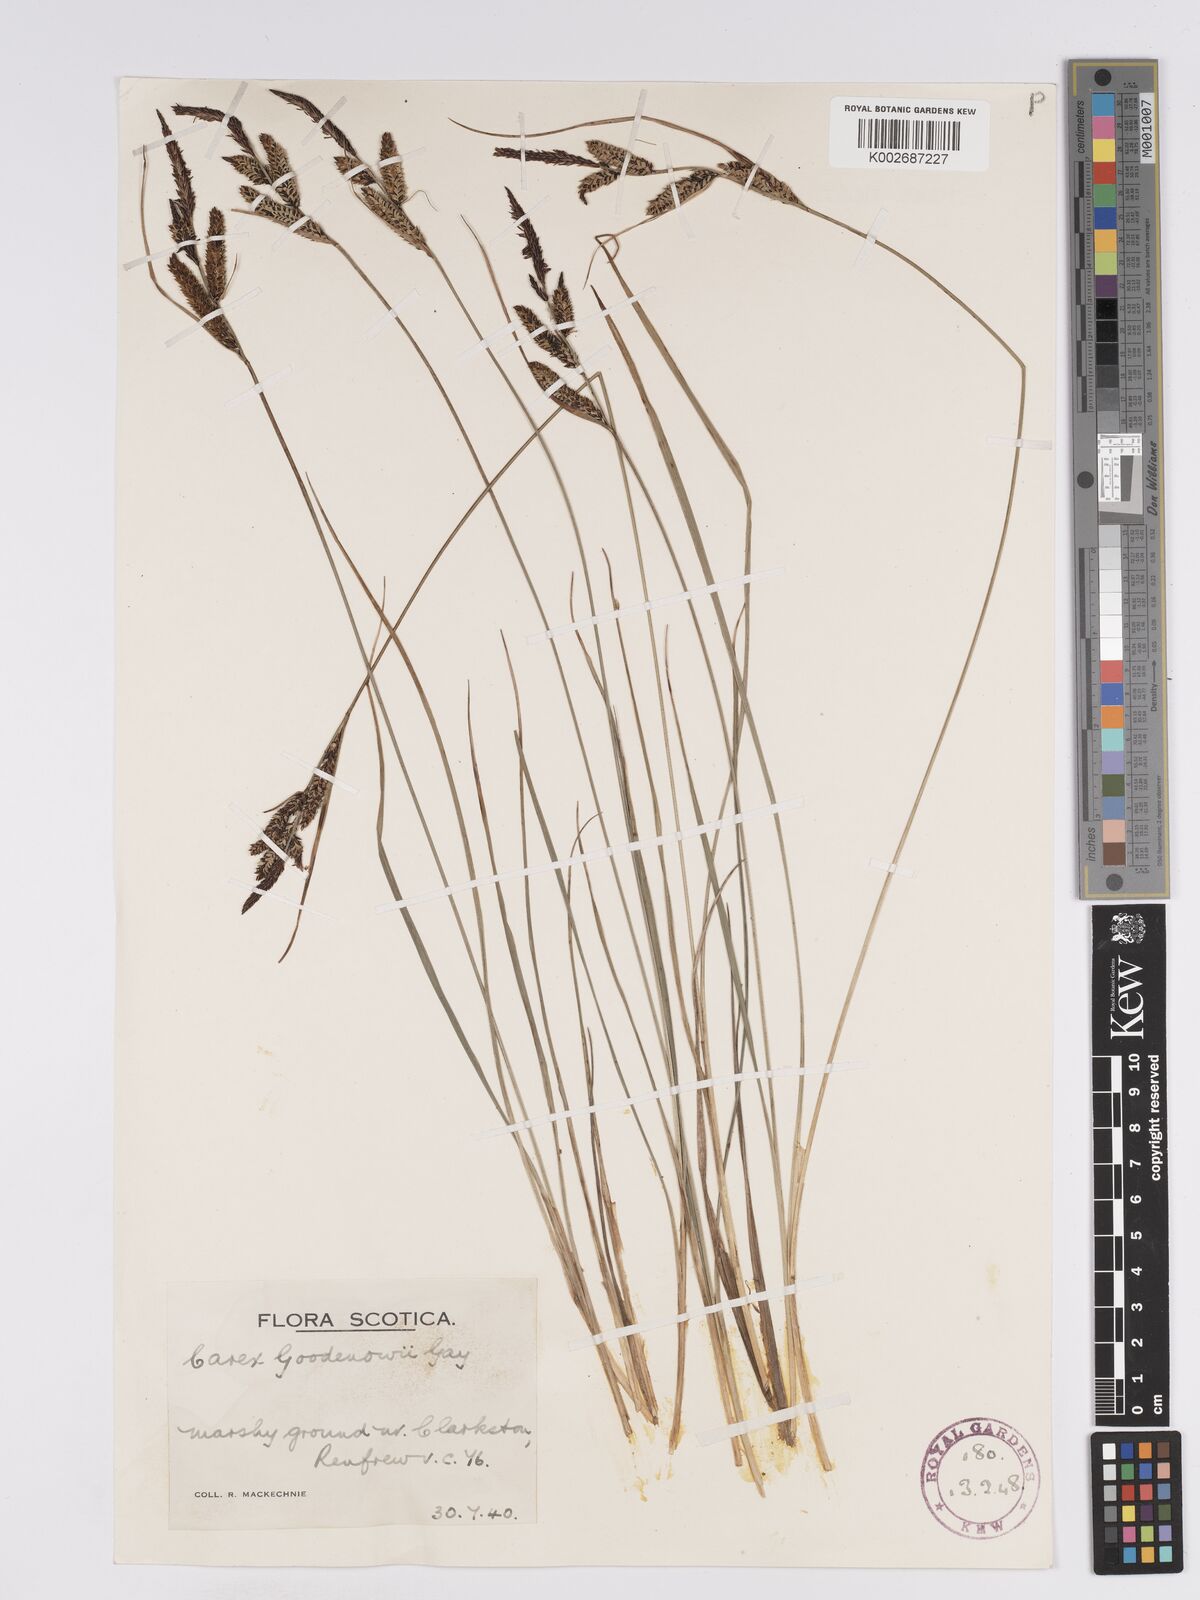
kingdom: Plantae
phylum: Tracheophyta
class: Liliopsida
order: Poales
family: Cyperaceae
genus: Carex
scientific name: Carex nigra
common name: Common sedge
